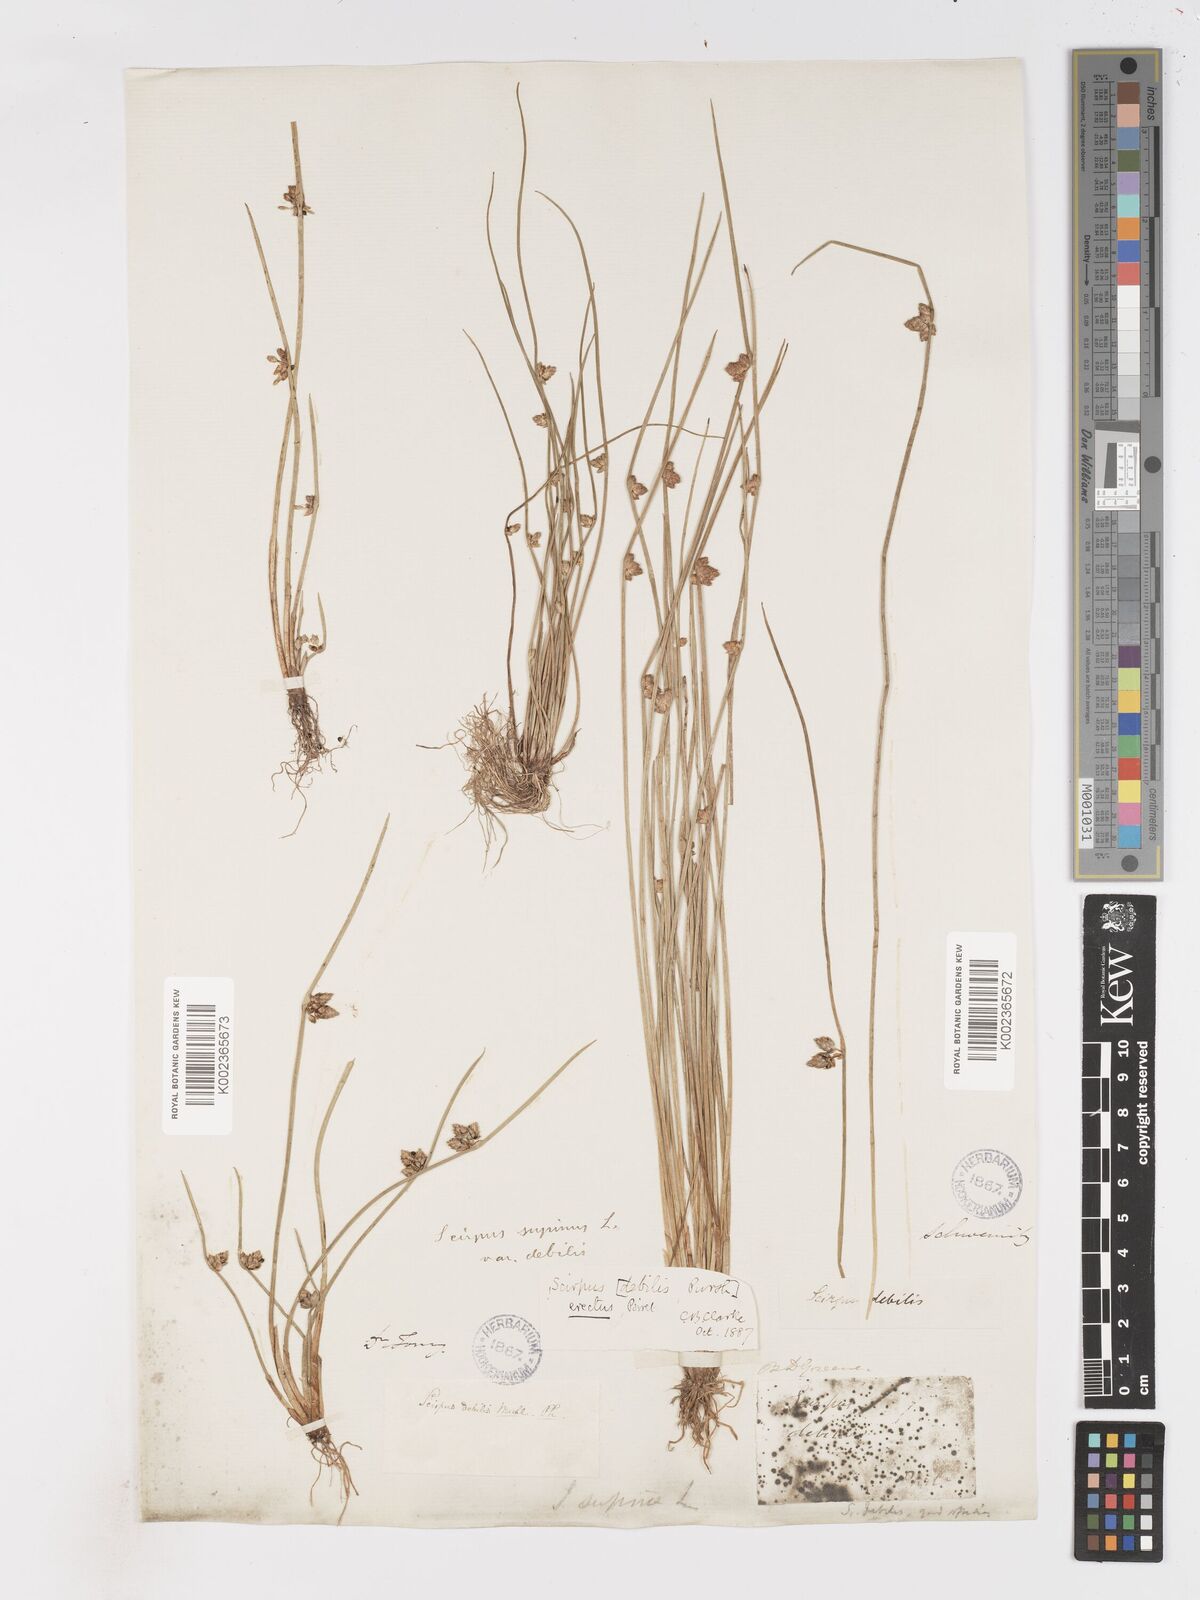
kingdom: Plantae
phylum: Tracheophyta
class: Liliopsida
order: Poales
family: Cyperaceae
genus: Schoenoplectiella
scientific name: Schoenoplectiella purshiana
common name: Weak-stalked bulrush
